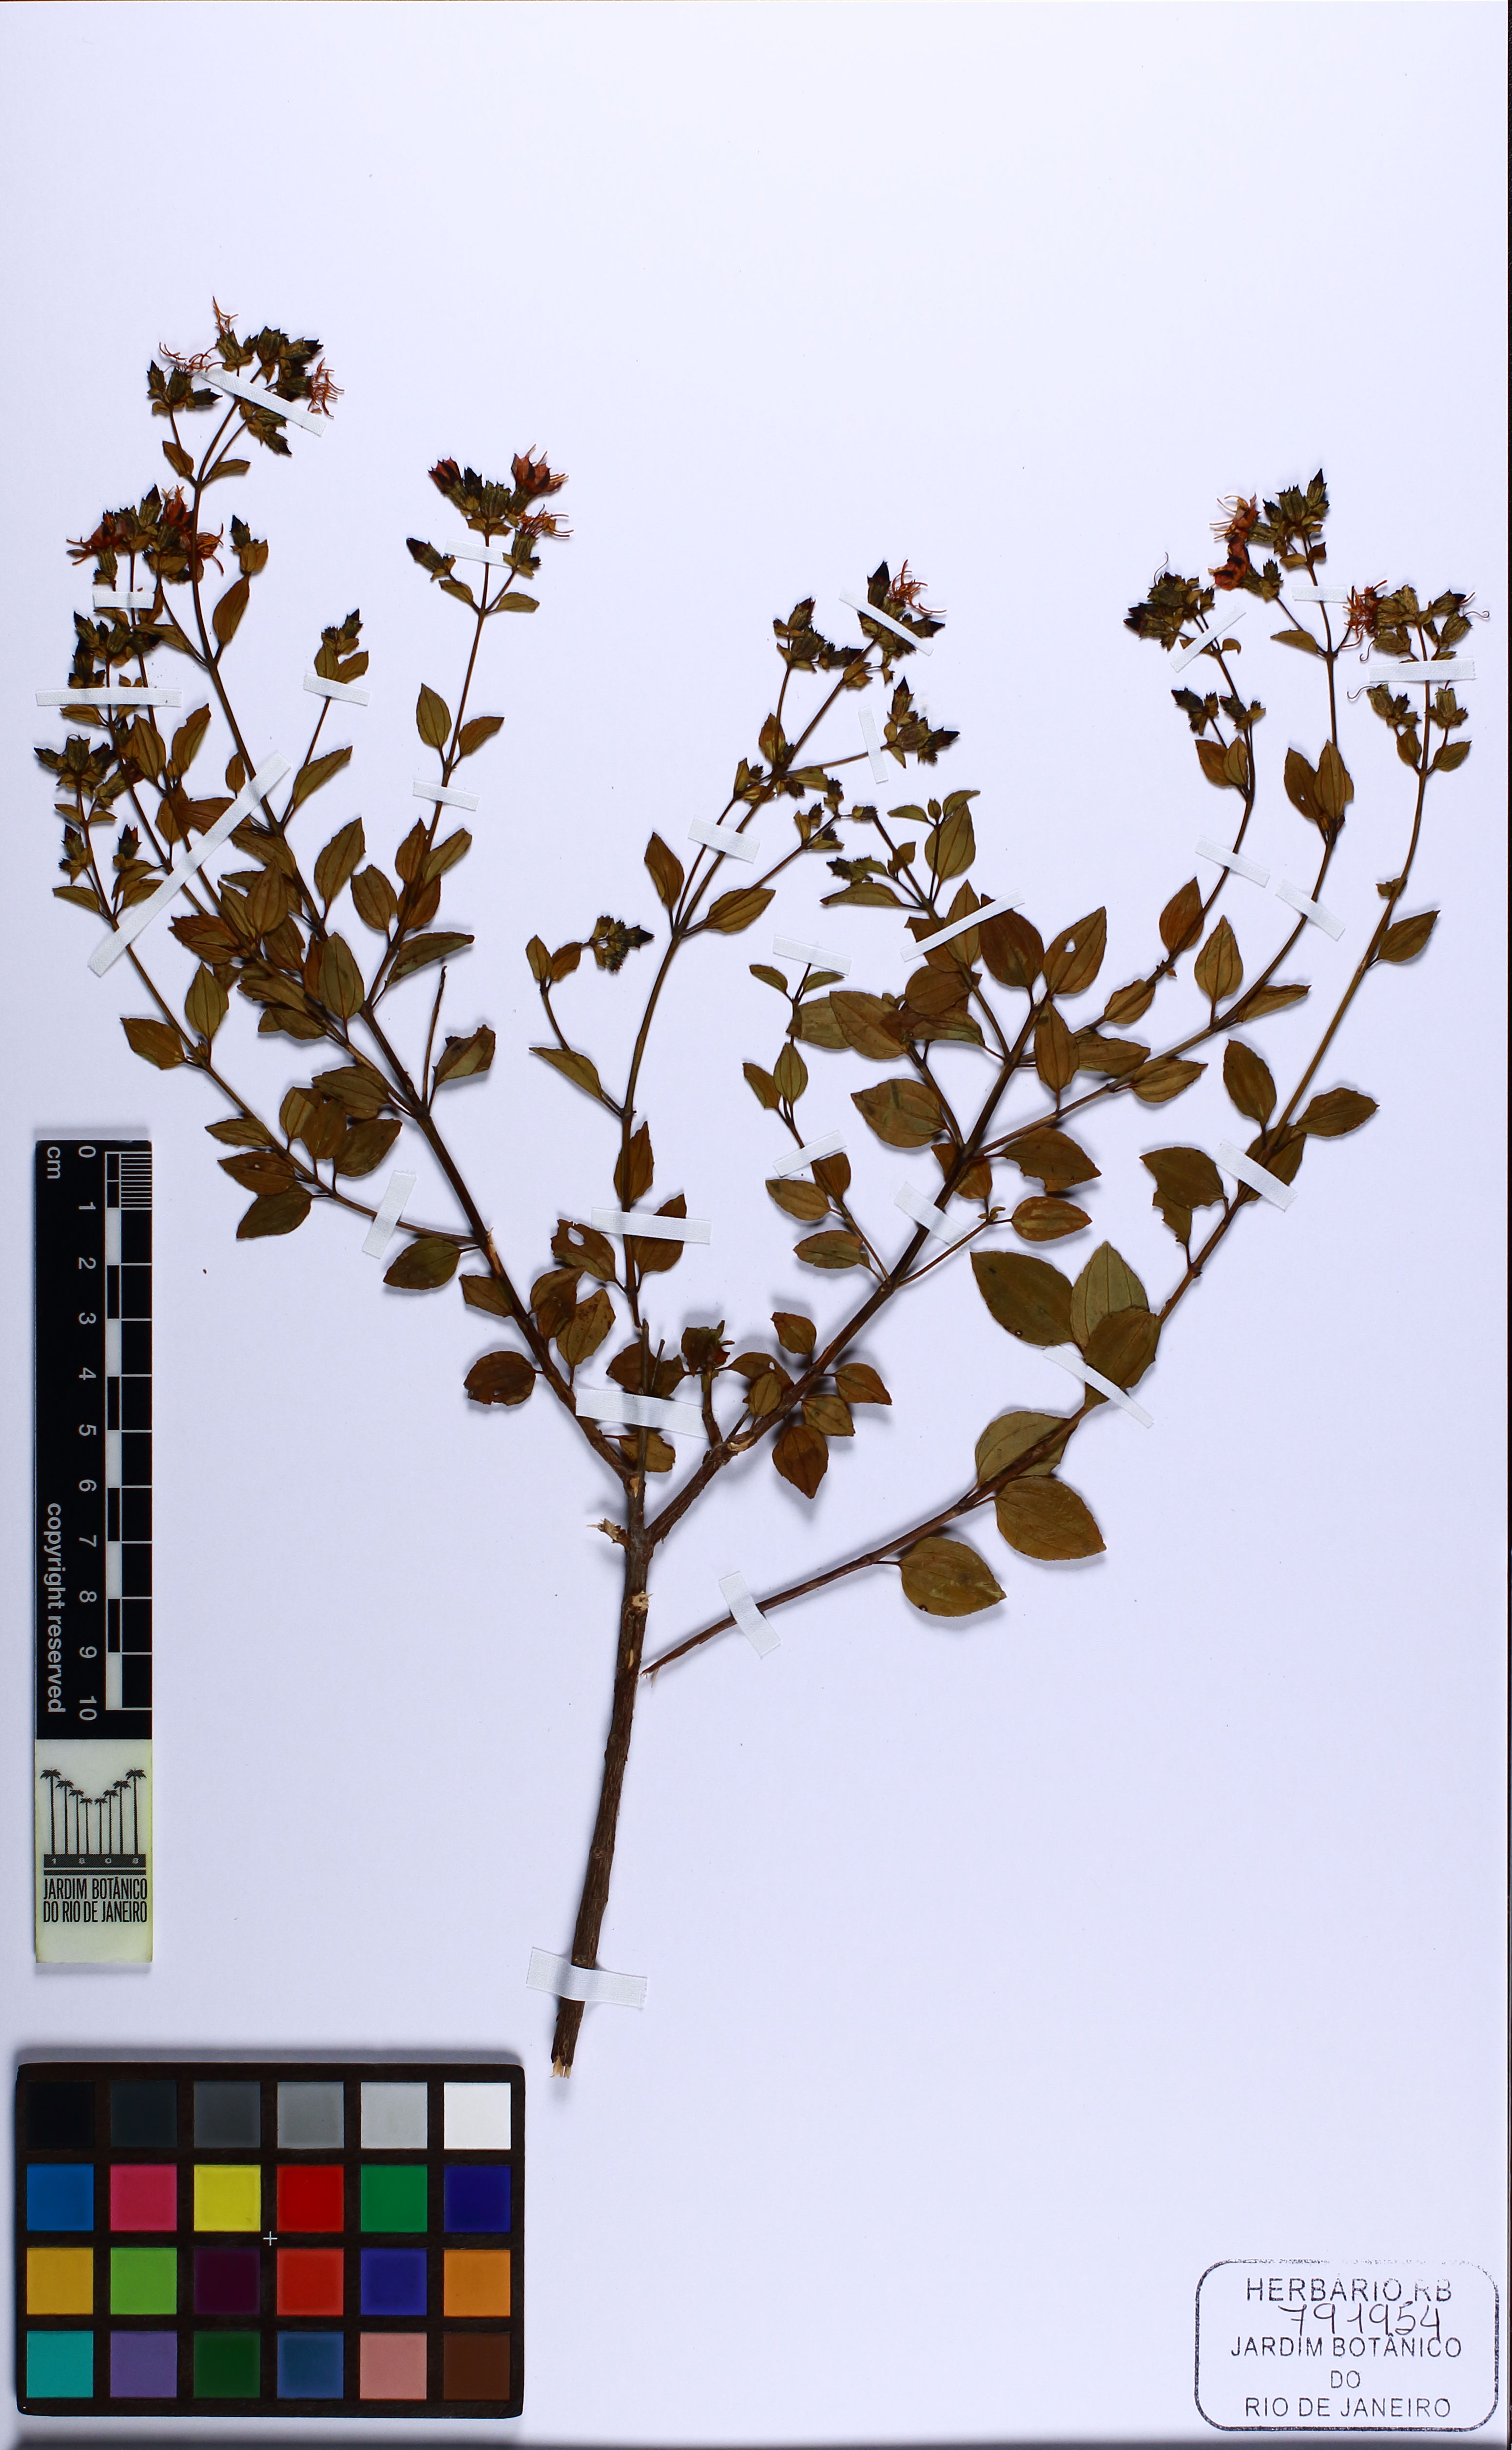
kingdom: Plantae
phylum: Tracheophyta
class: Magnoliopsida
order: Myrtales
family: Melastomataceae
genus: Cambessedesia
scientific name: Cambessedesia tenuis
